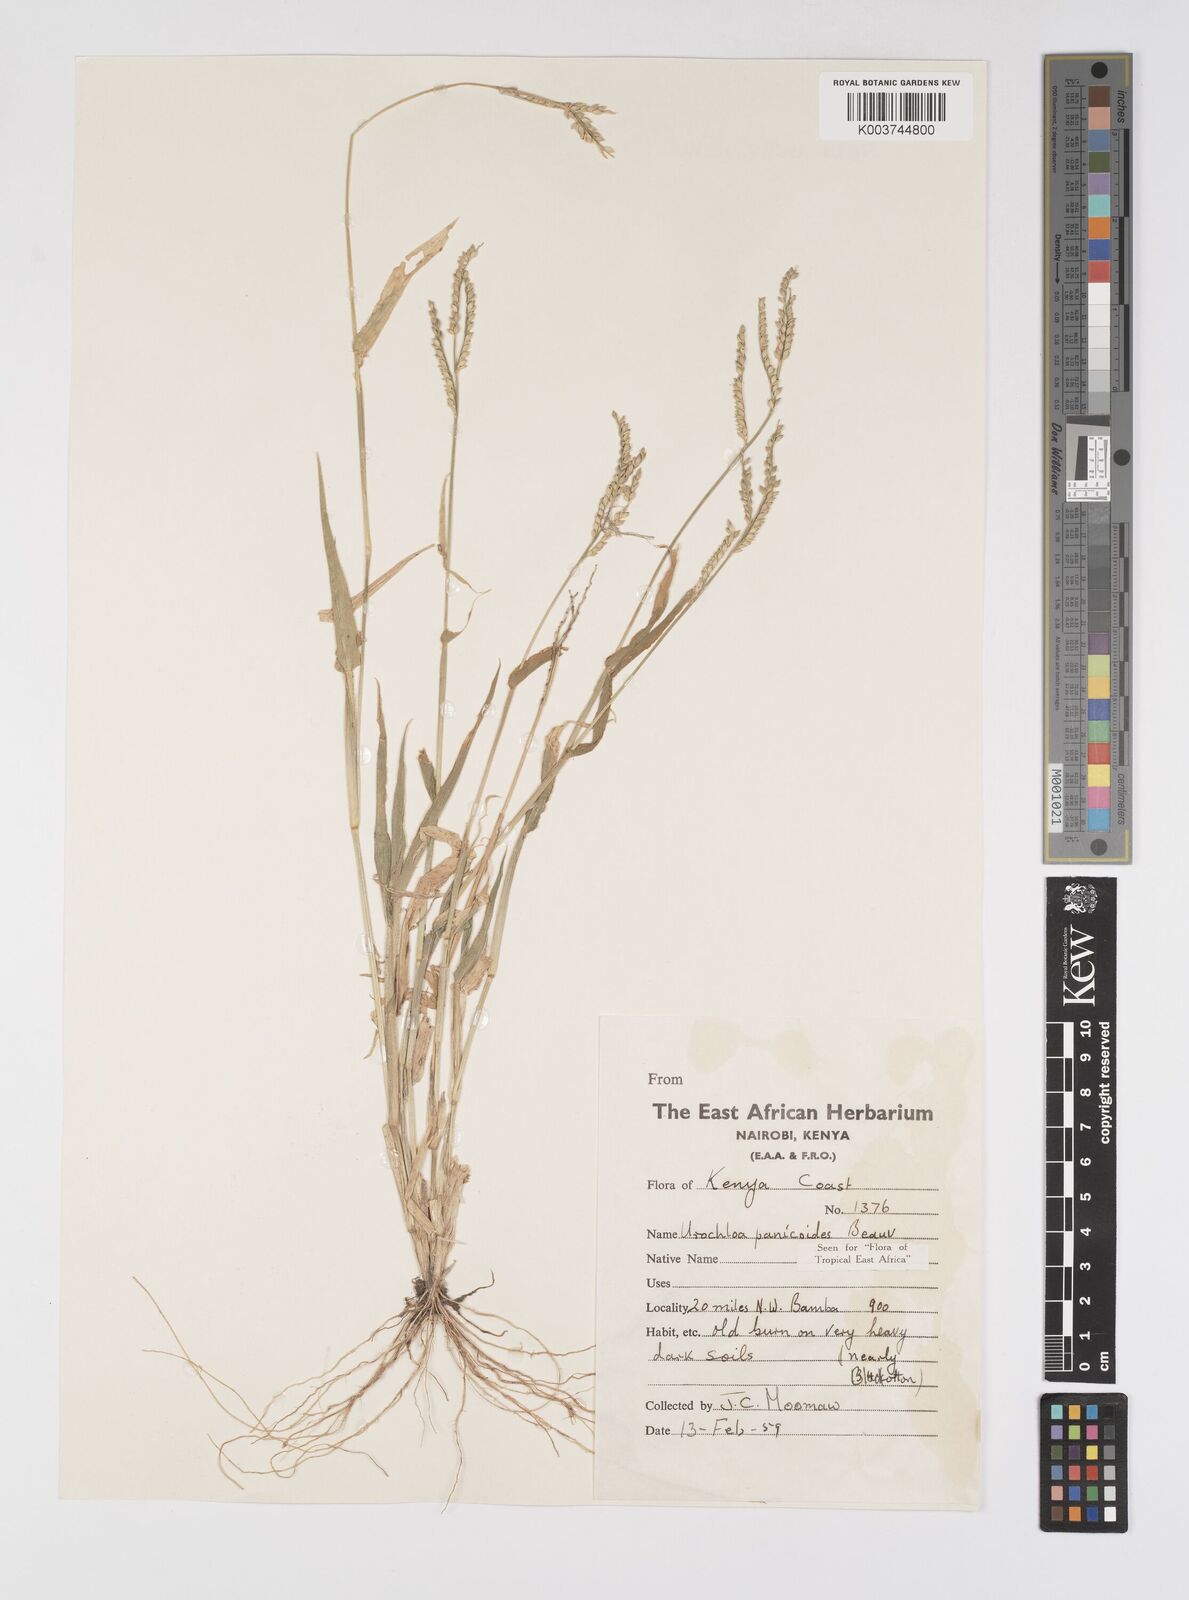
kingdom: Plantae
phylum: Tracheophyta
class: Liliopsida
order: Poales
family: Poaceae
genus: Urochloa
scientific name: Urochloa panicoides
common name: Sharp-flowered signal-grass
